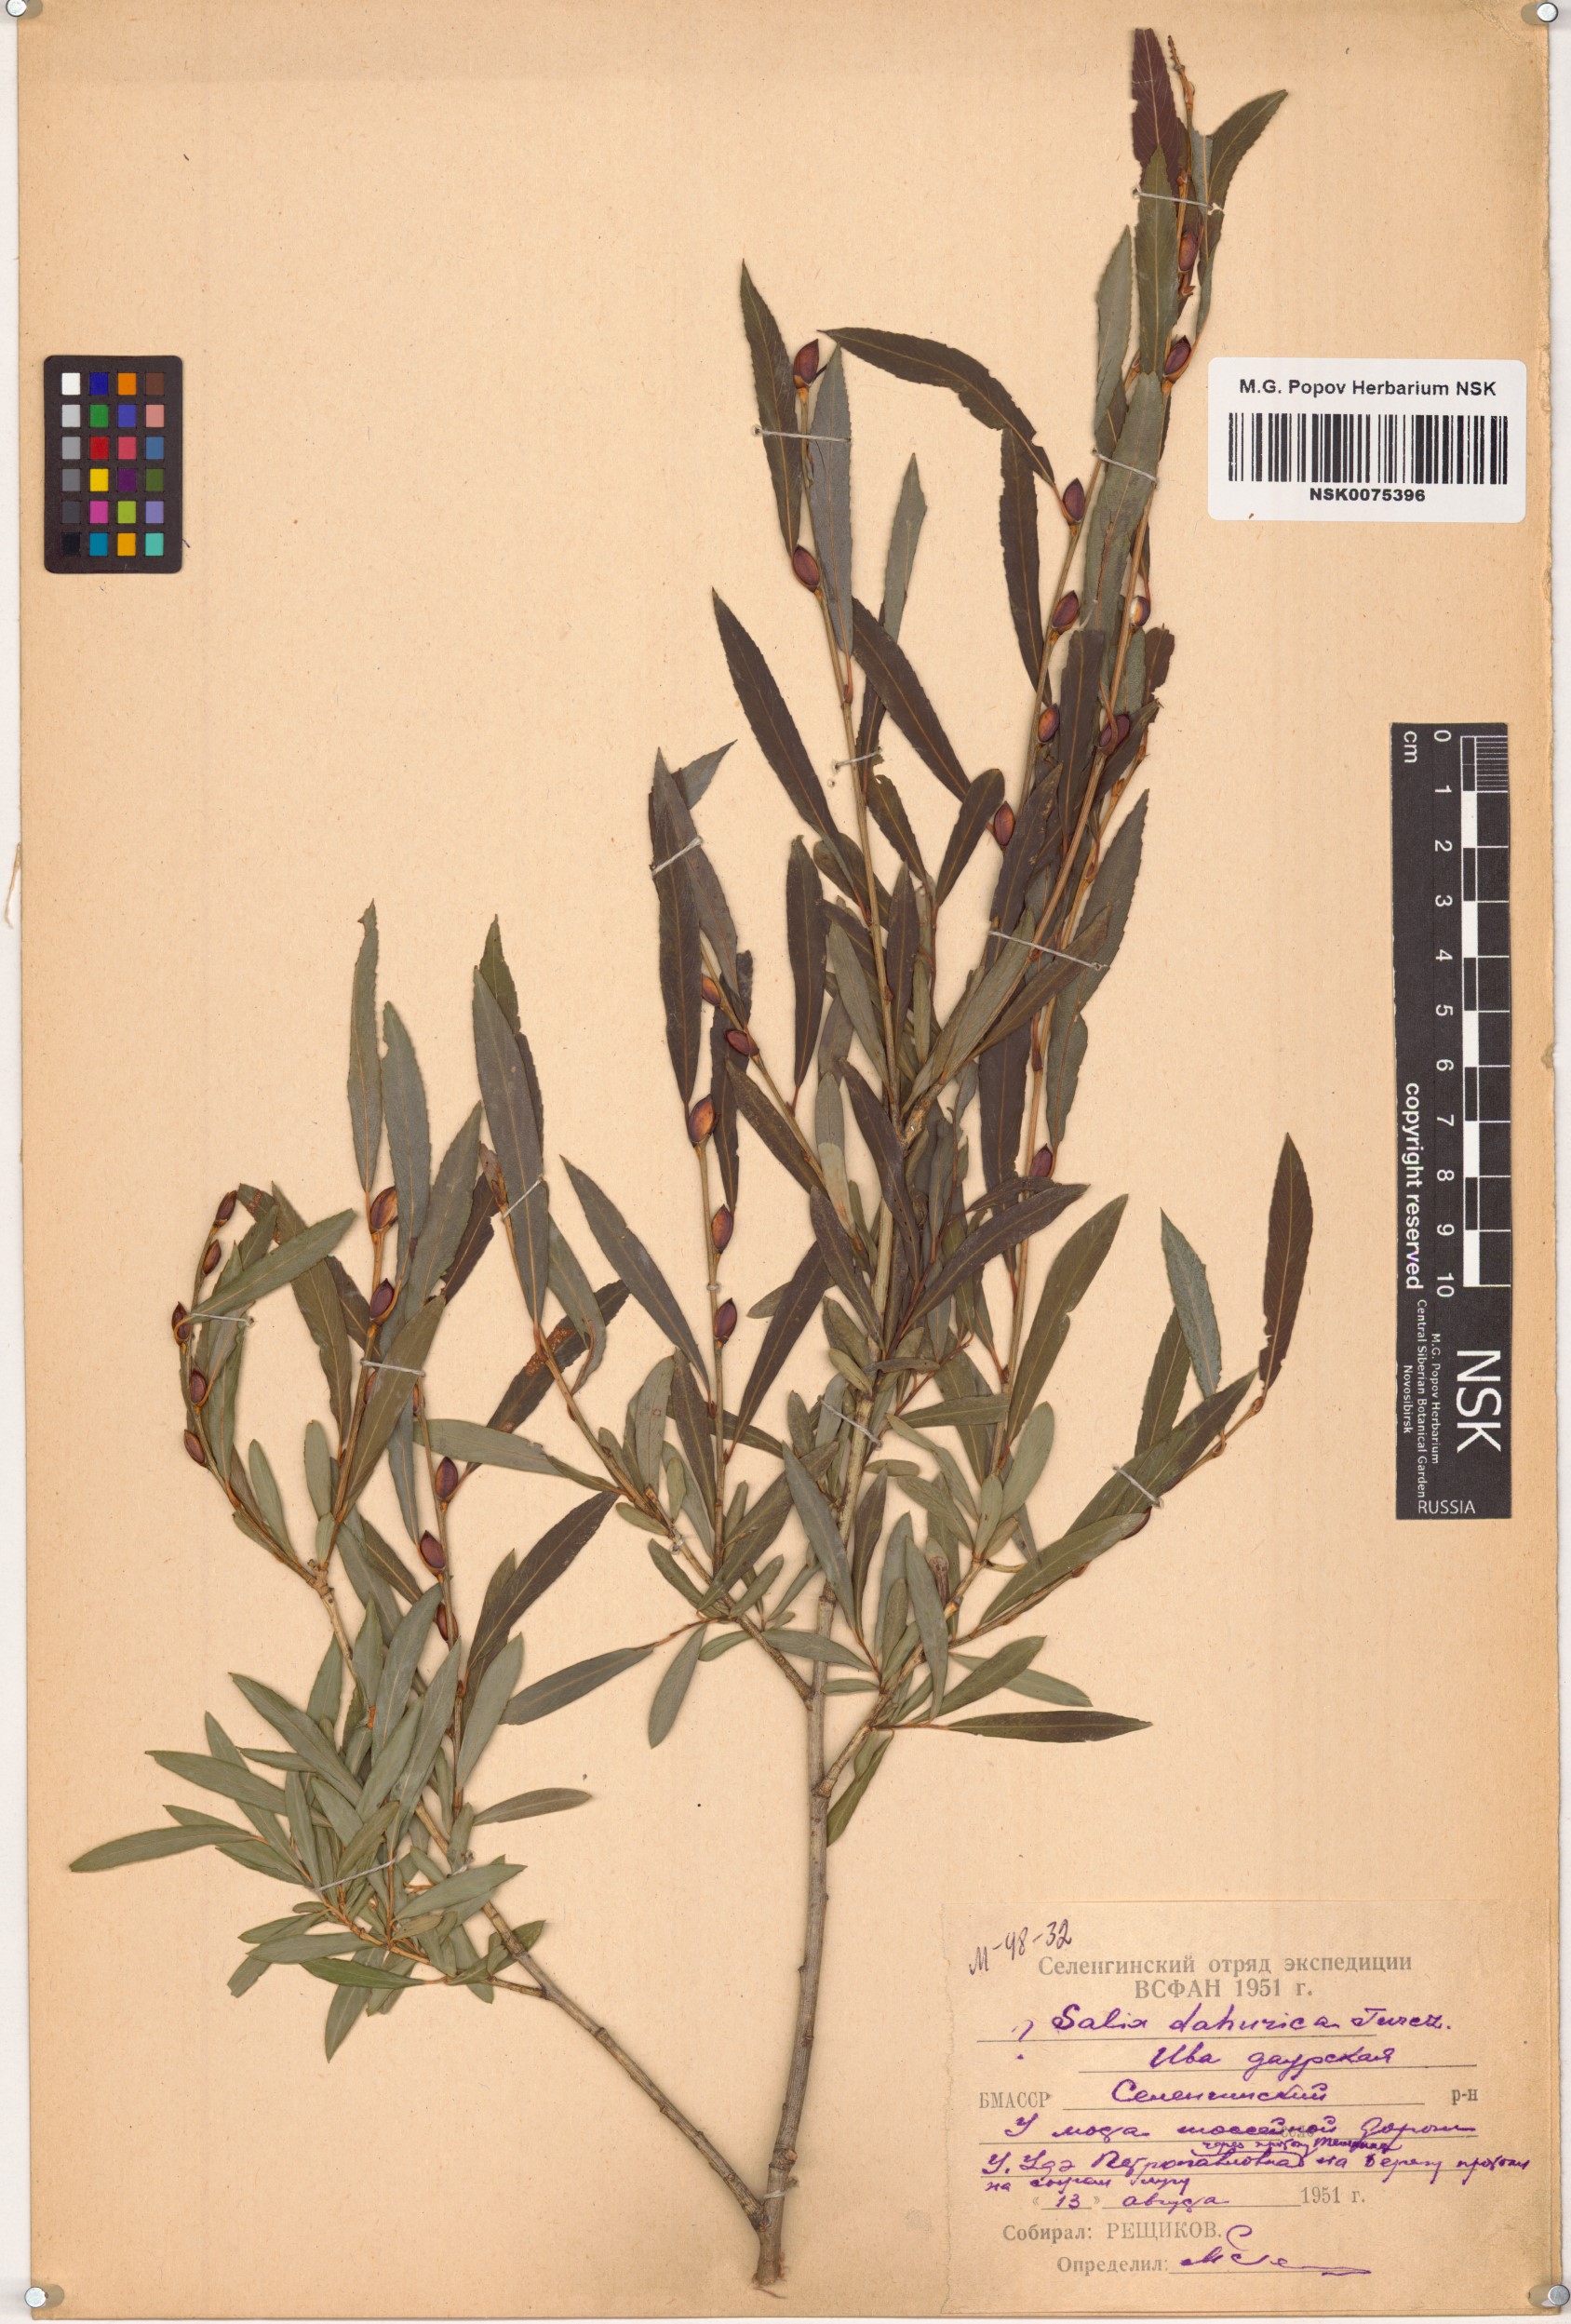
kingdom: Plantae
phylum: Tracheophyta
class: Magnoliopsida
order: Malpighiales
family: Salicaceae
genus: Salix
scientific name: Salix
